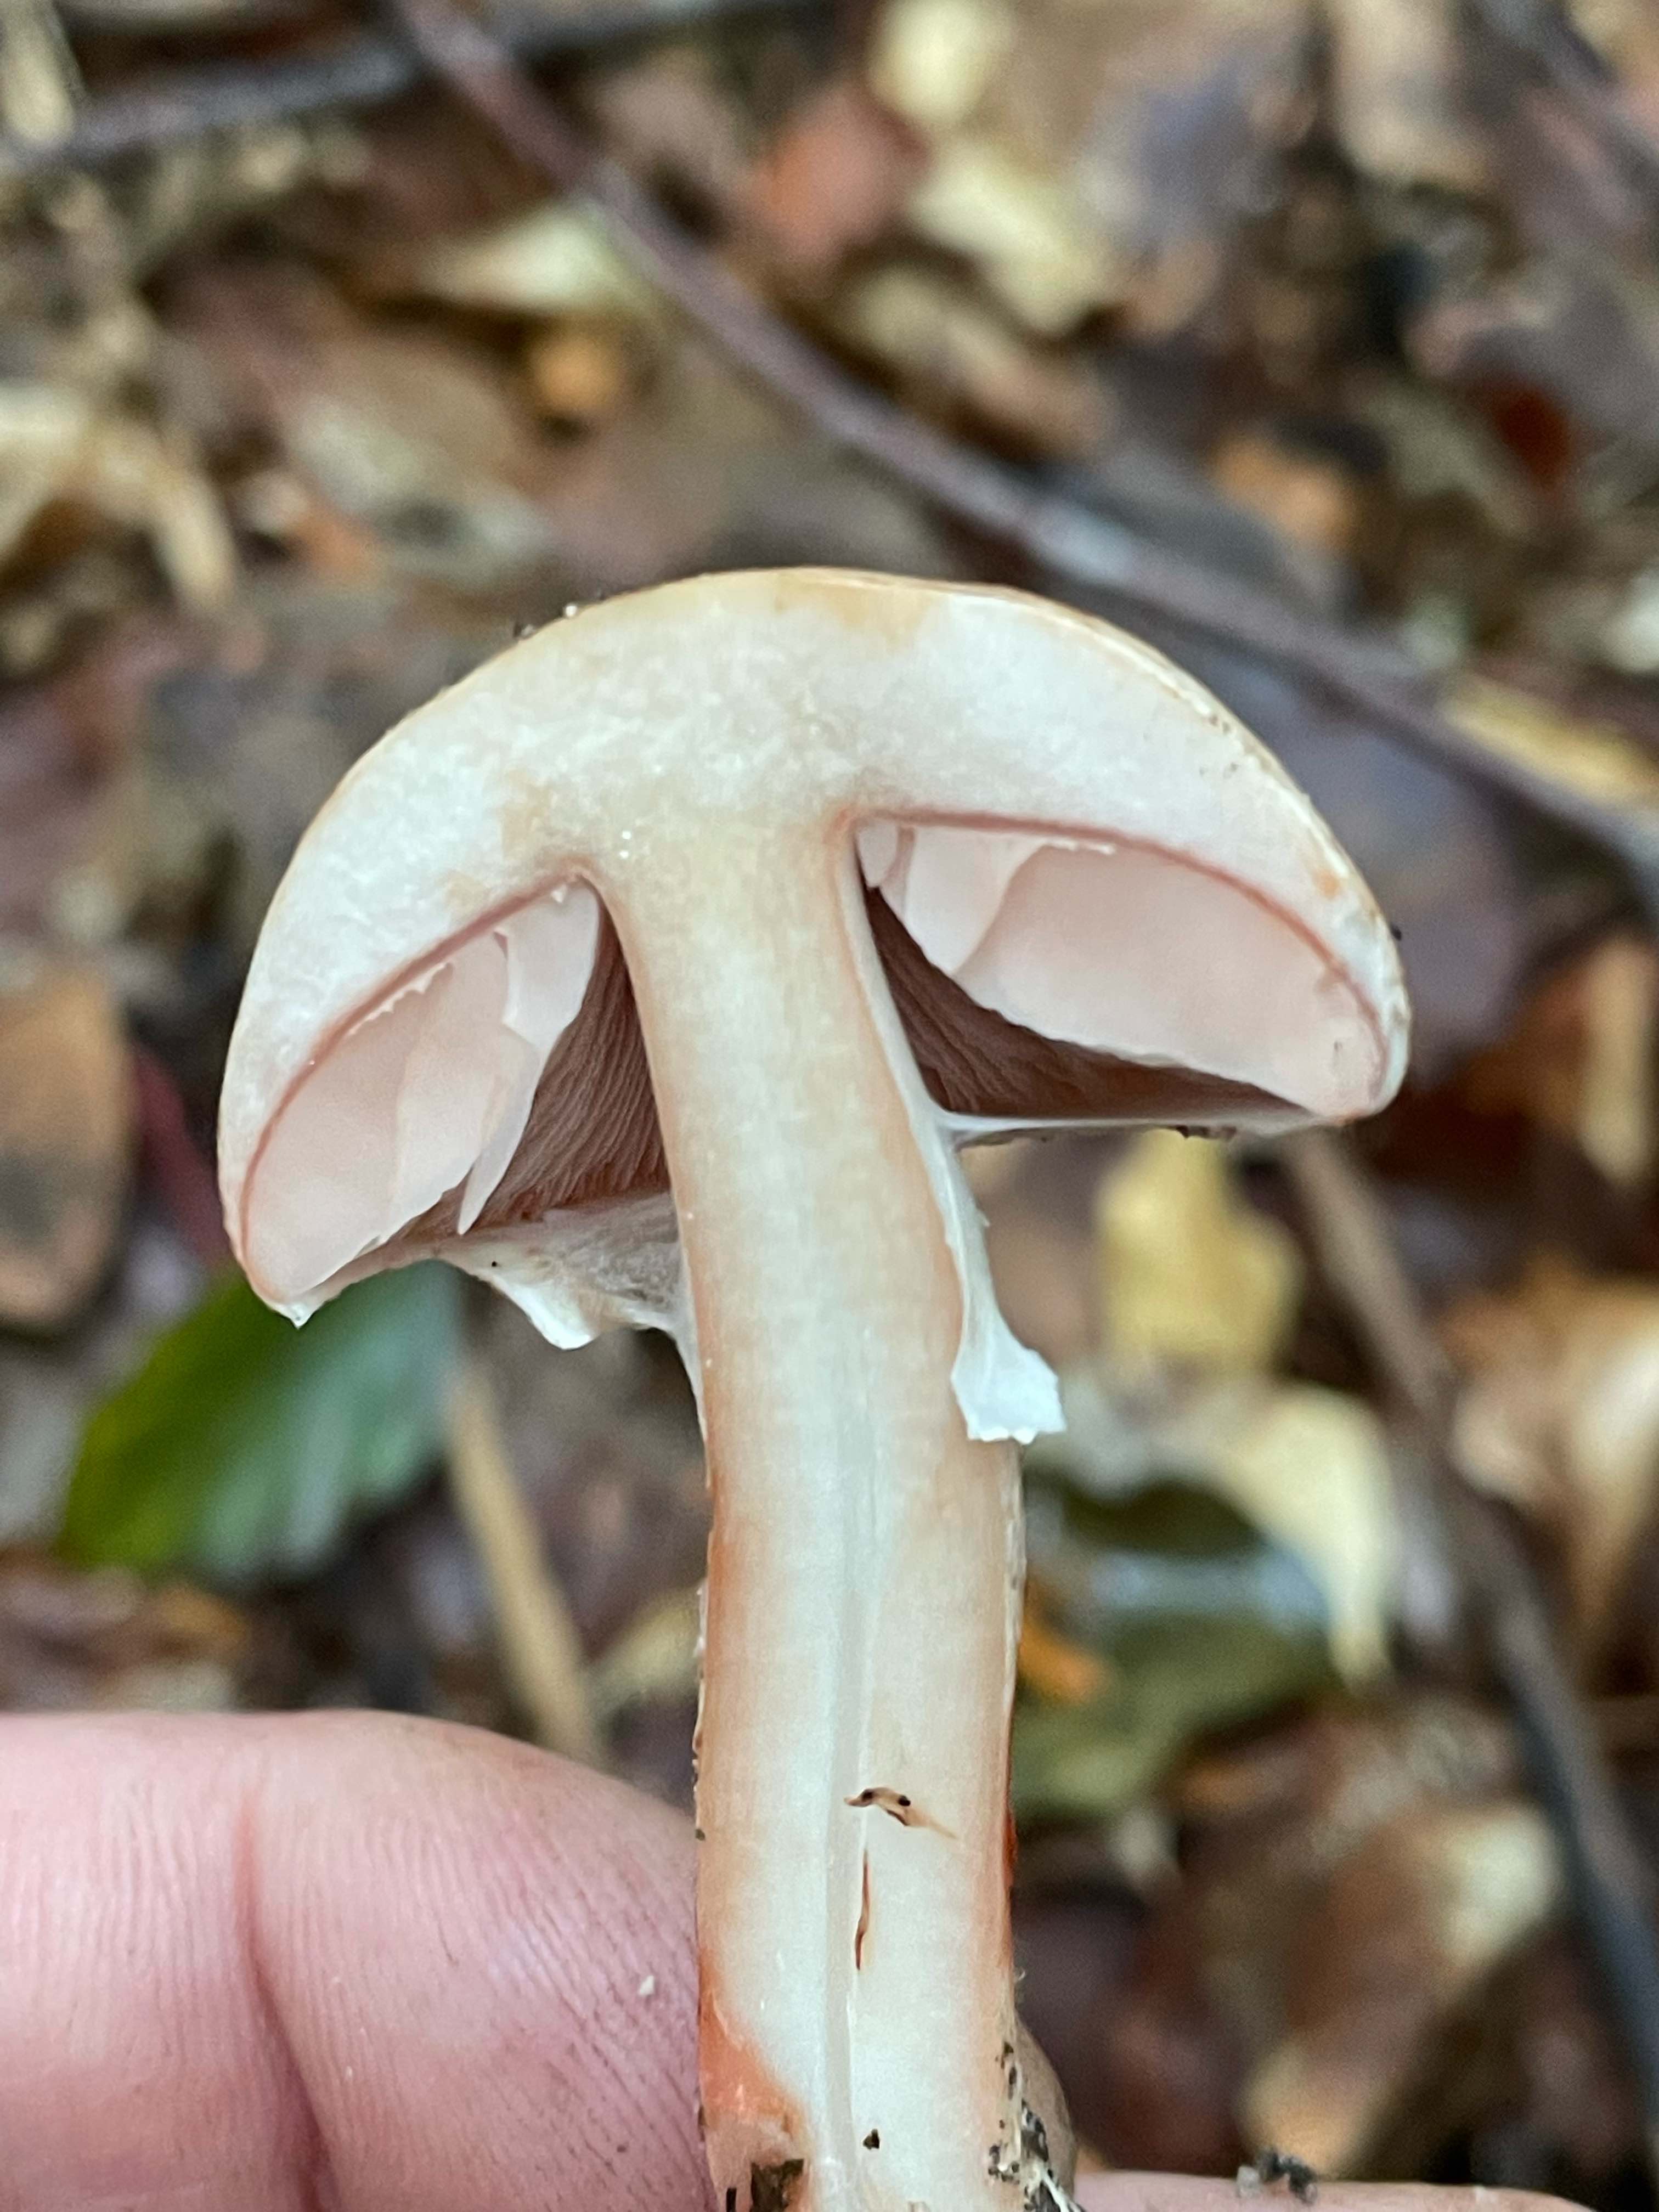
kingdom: Fungi
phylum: Basidiomycota
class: Agaricomycetes
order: Agaricales
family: Agaricaceae
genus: Agaricus
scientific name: Agaricus sylvaticus
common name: lille blod-champignon
